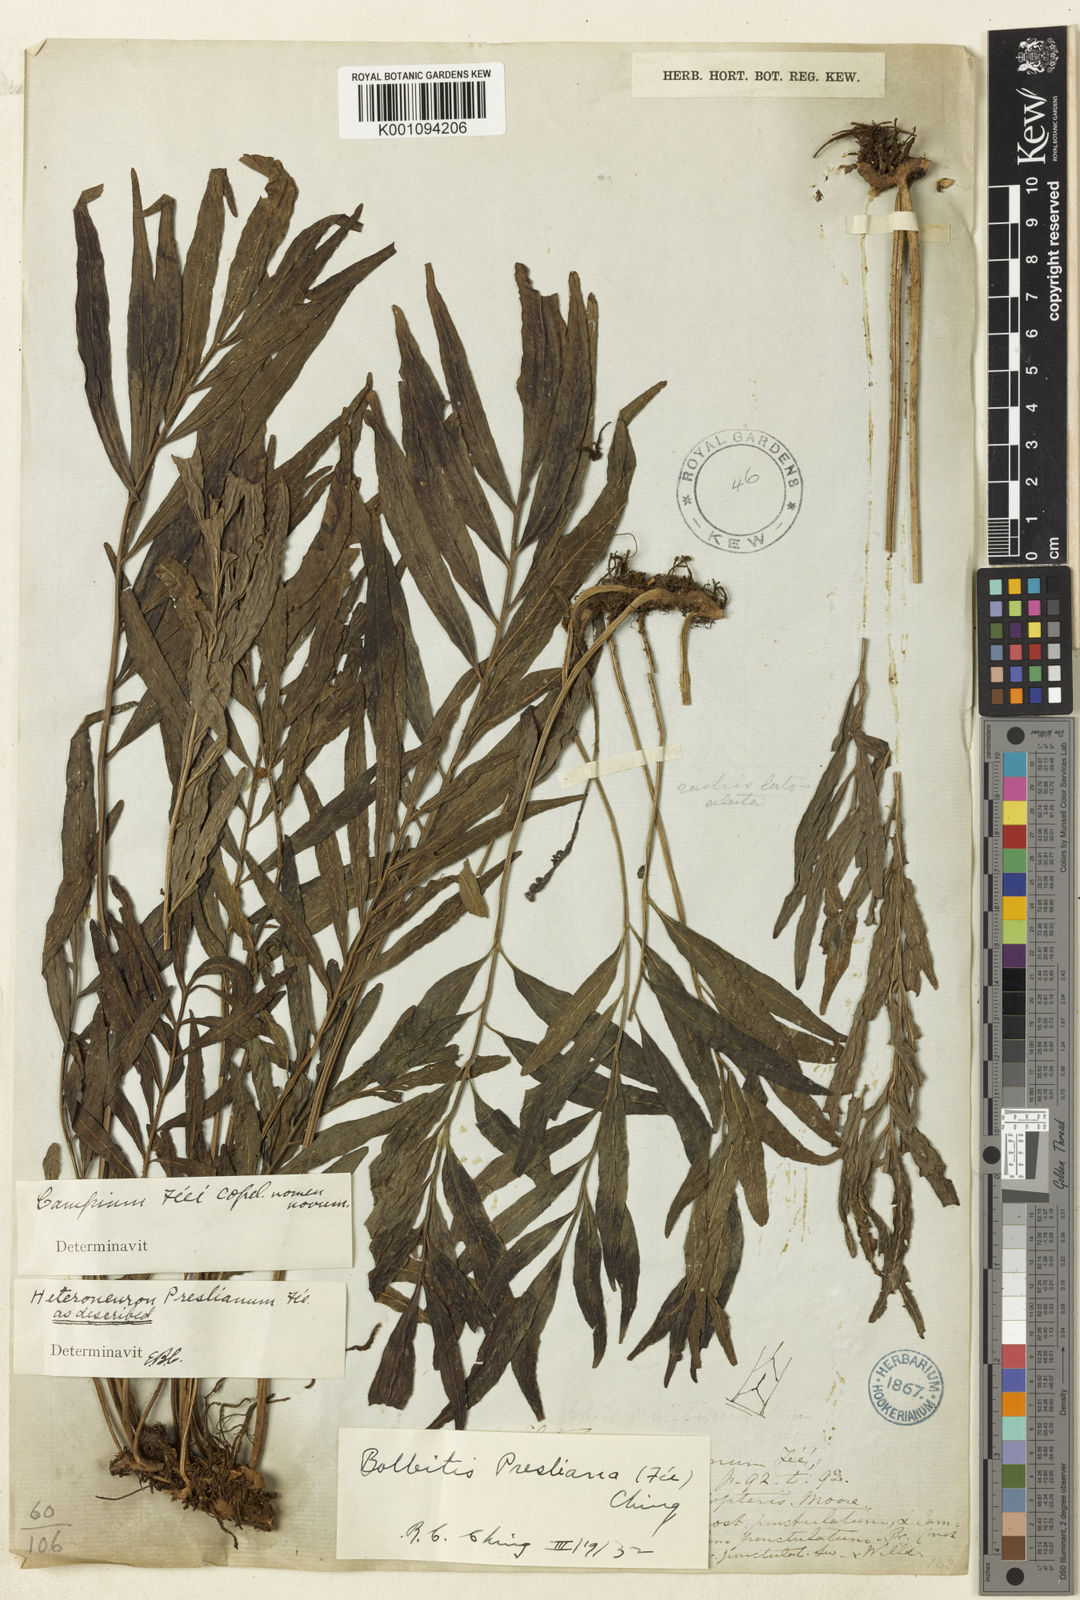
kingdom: Plantae
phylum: Tracheophyta
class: Polypodiopsida
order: Polypodiales
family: Dryopteridaceae
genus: Bolbitis
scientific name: Bolbitis
